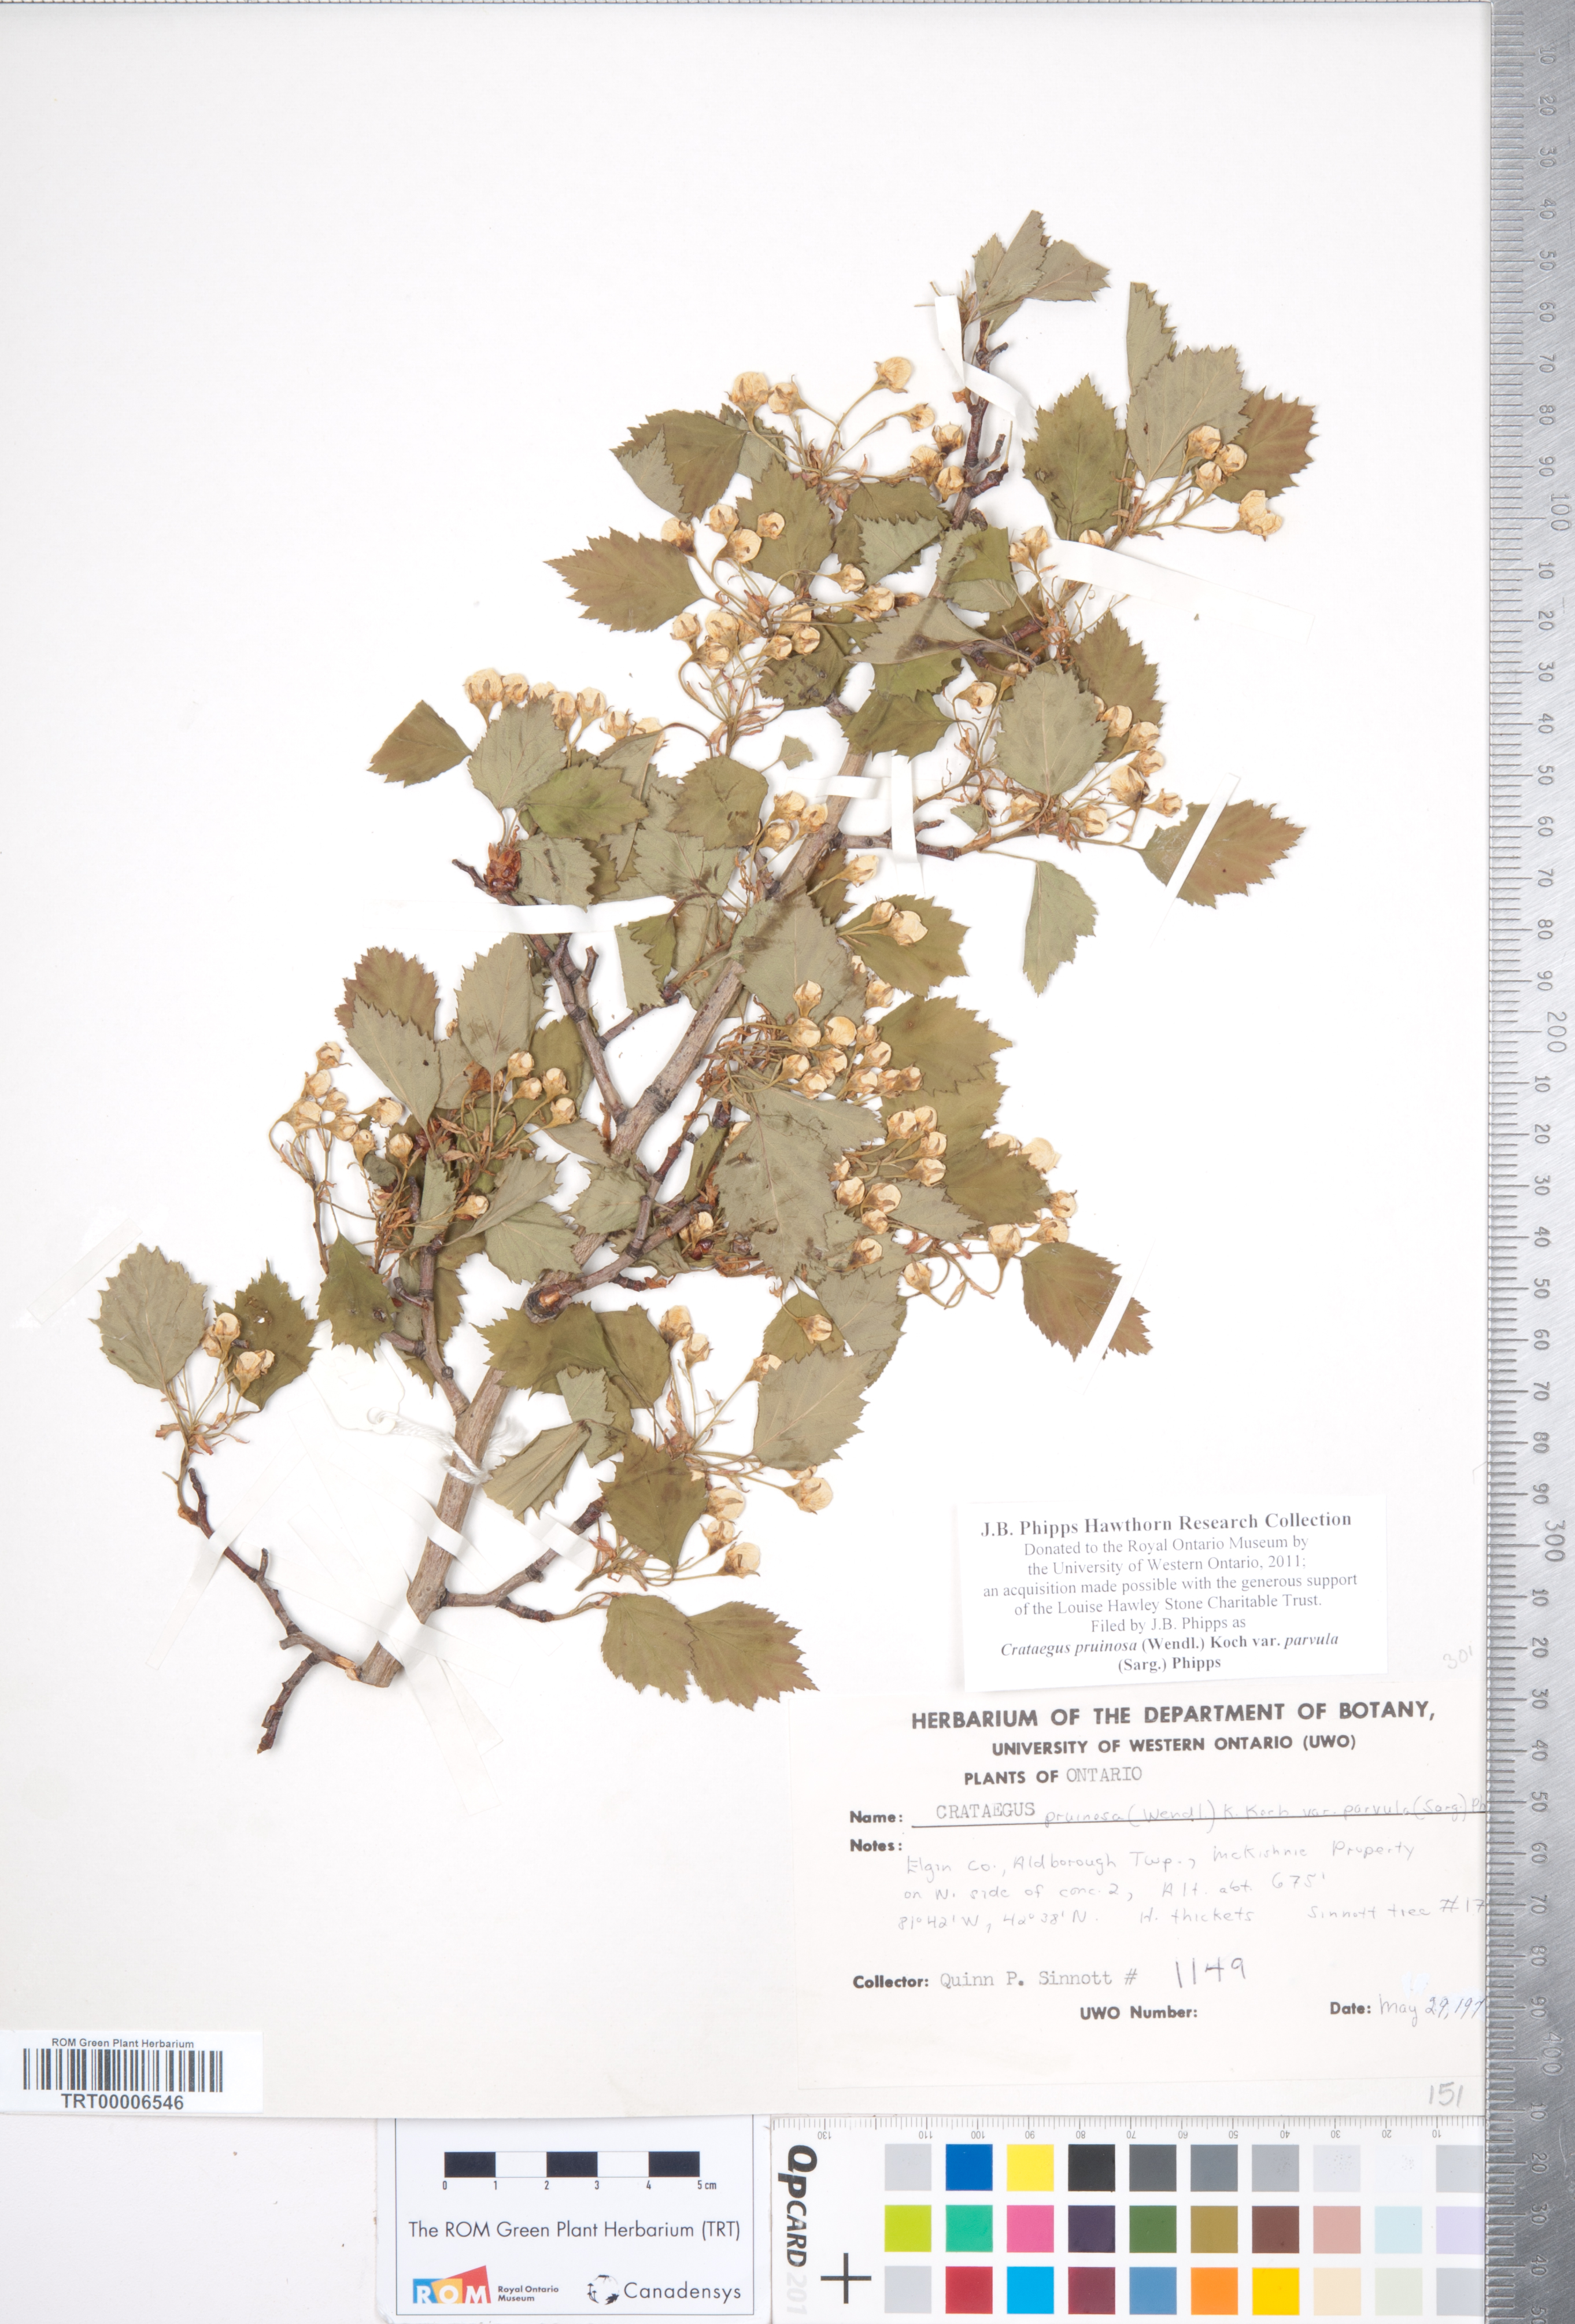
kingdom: Plantae
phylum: Tracheophyta
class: Magnoliopsida
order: Rosales
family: Rosaceae
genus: Crataegus
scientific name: Crataegus pruinosa
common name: Waxy-fruit hawthorn
